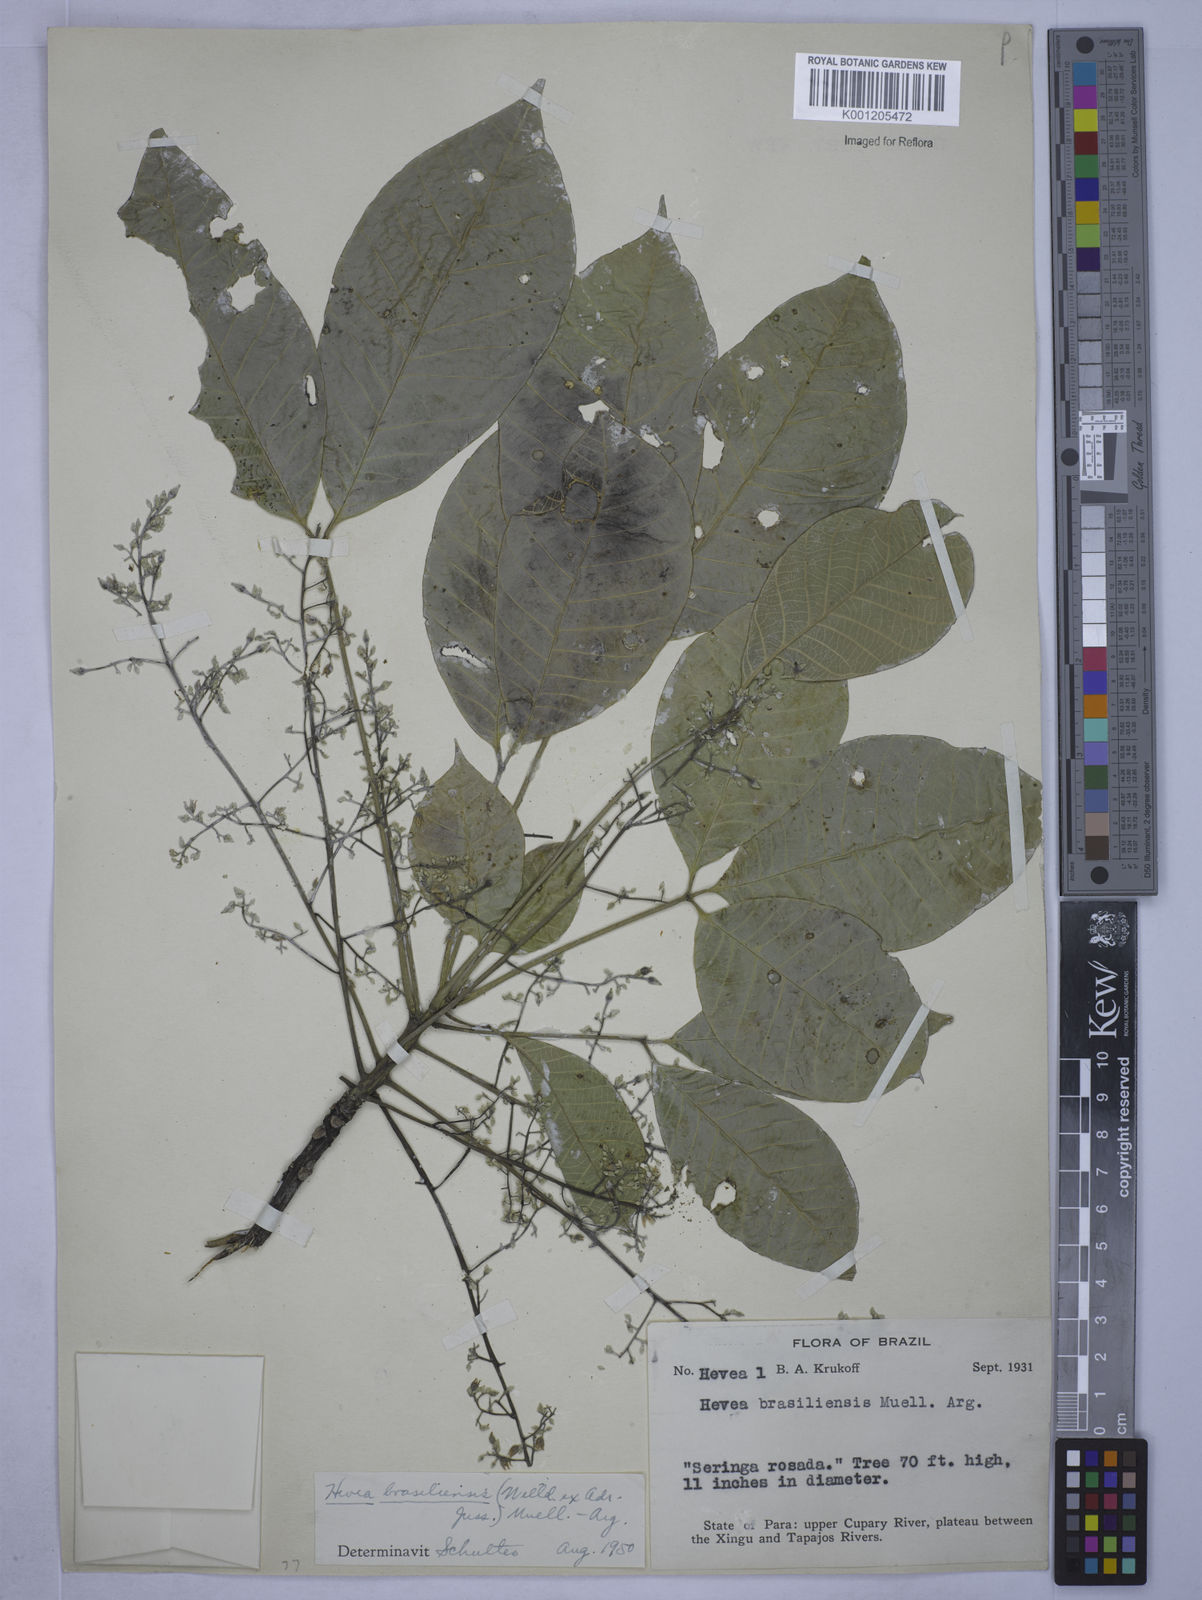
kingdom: Plantae
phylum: Tracheophyta
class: Magnoliopsida
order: Malpighiales
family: Euphorbiaceae
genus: Hevea
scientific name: Hevea
